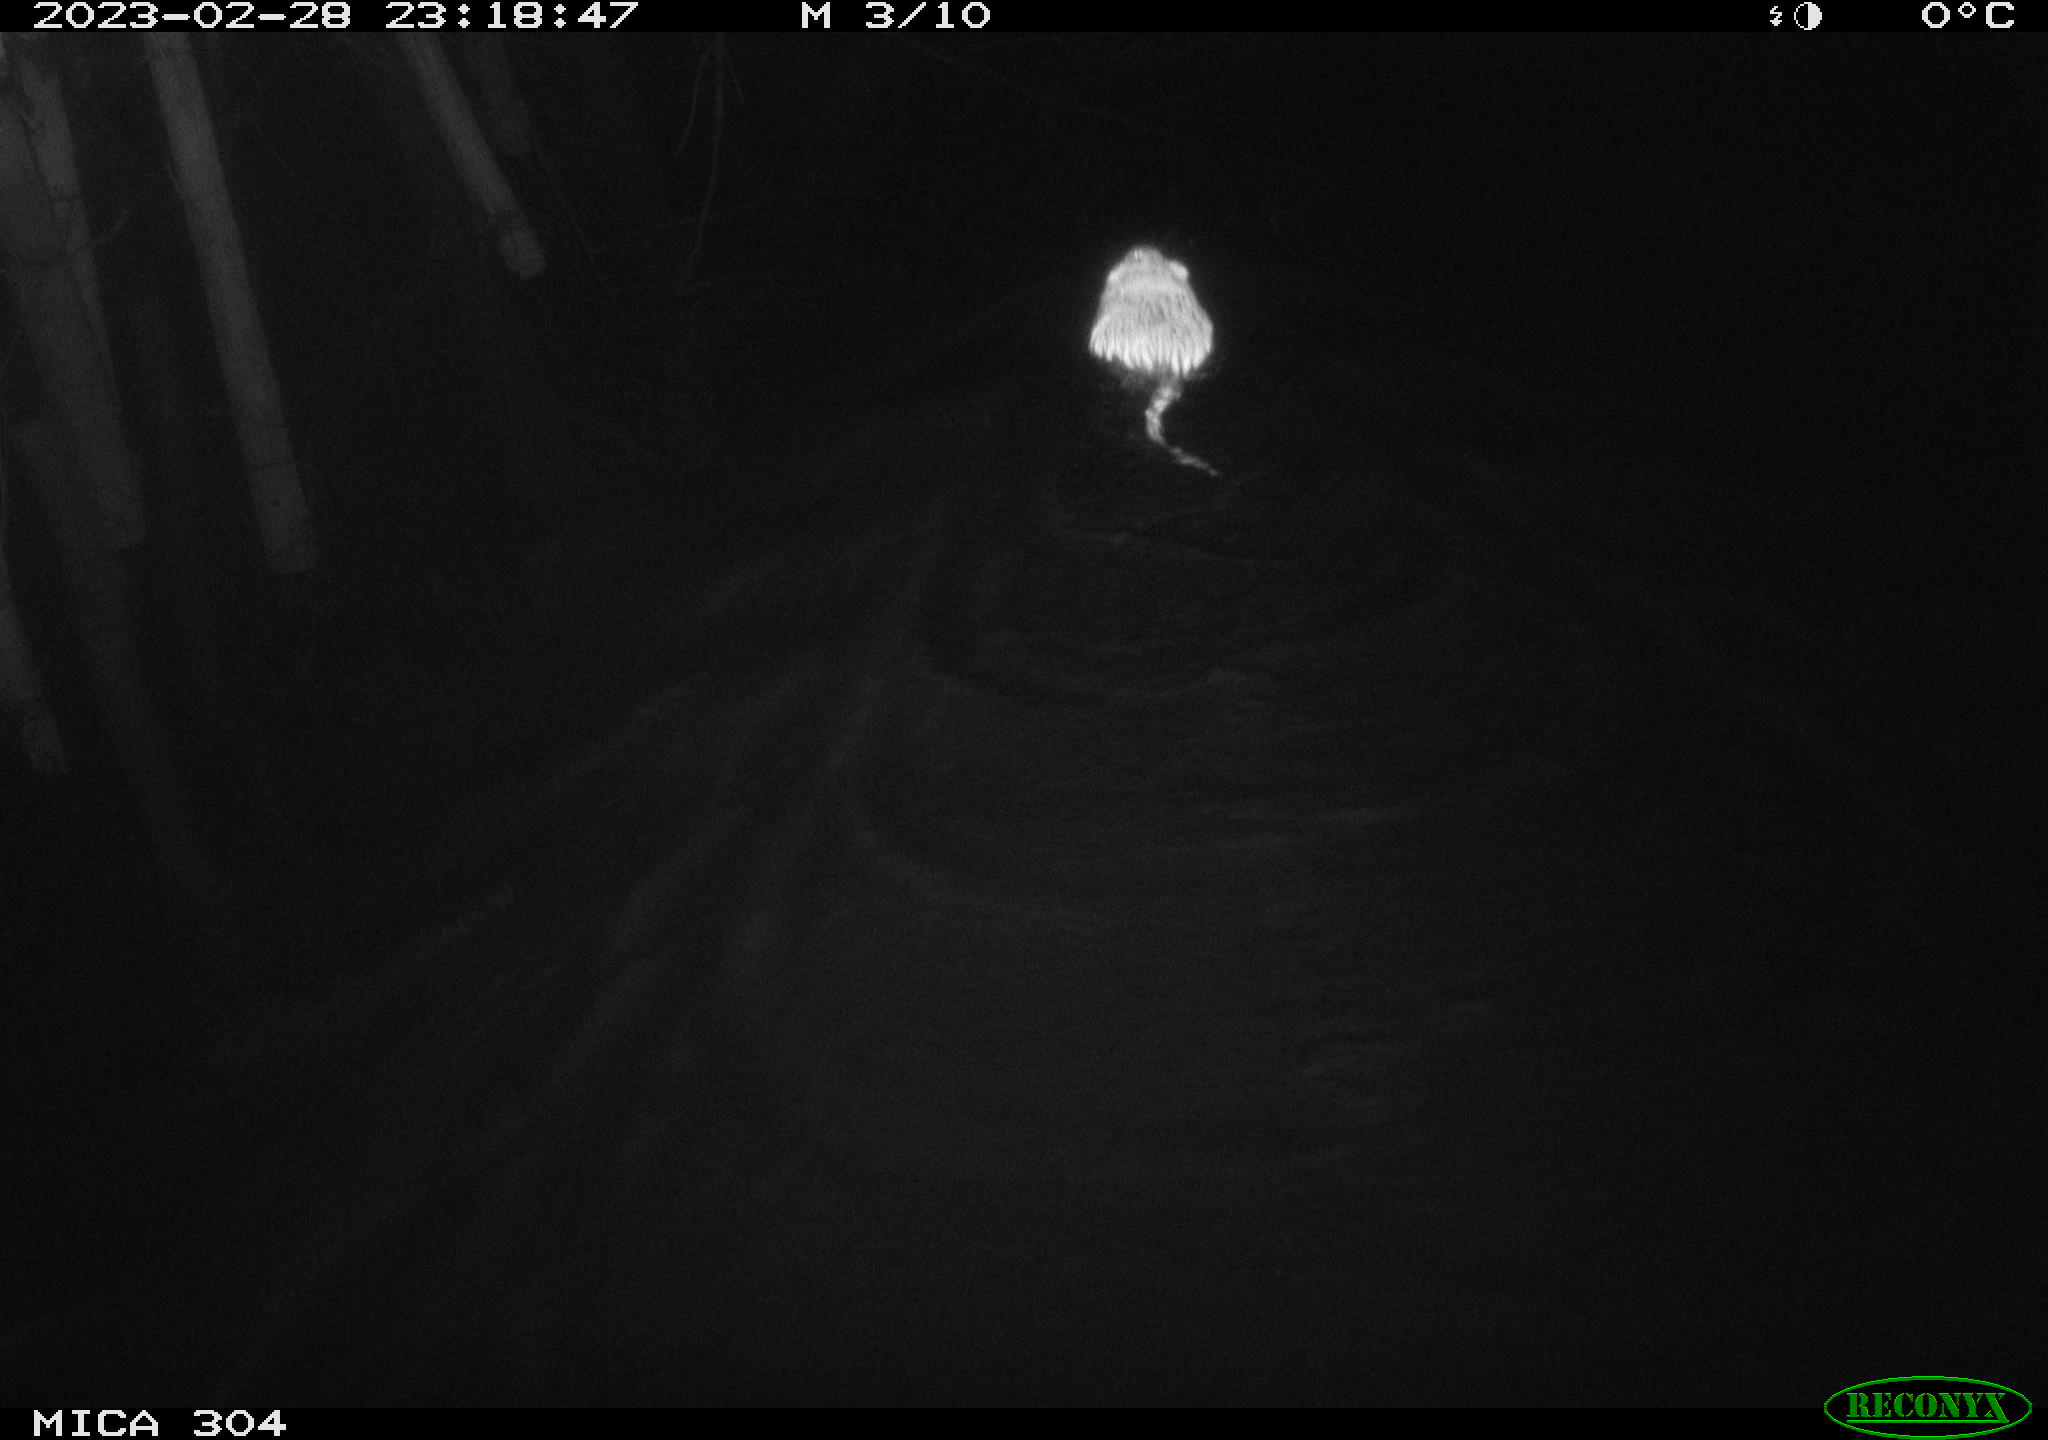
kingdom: Animalia
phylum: Chordata
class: Mammalia
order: Rodentia
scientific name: Rodentia
